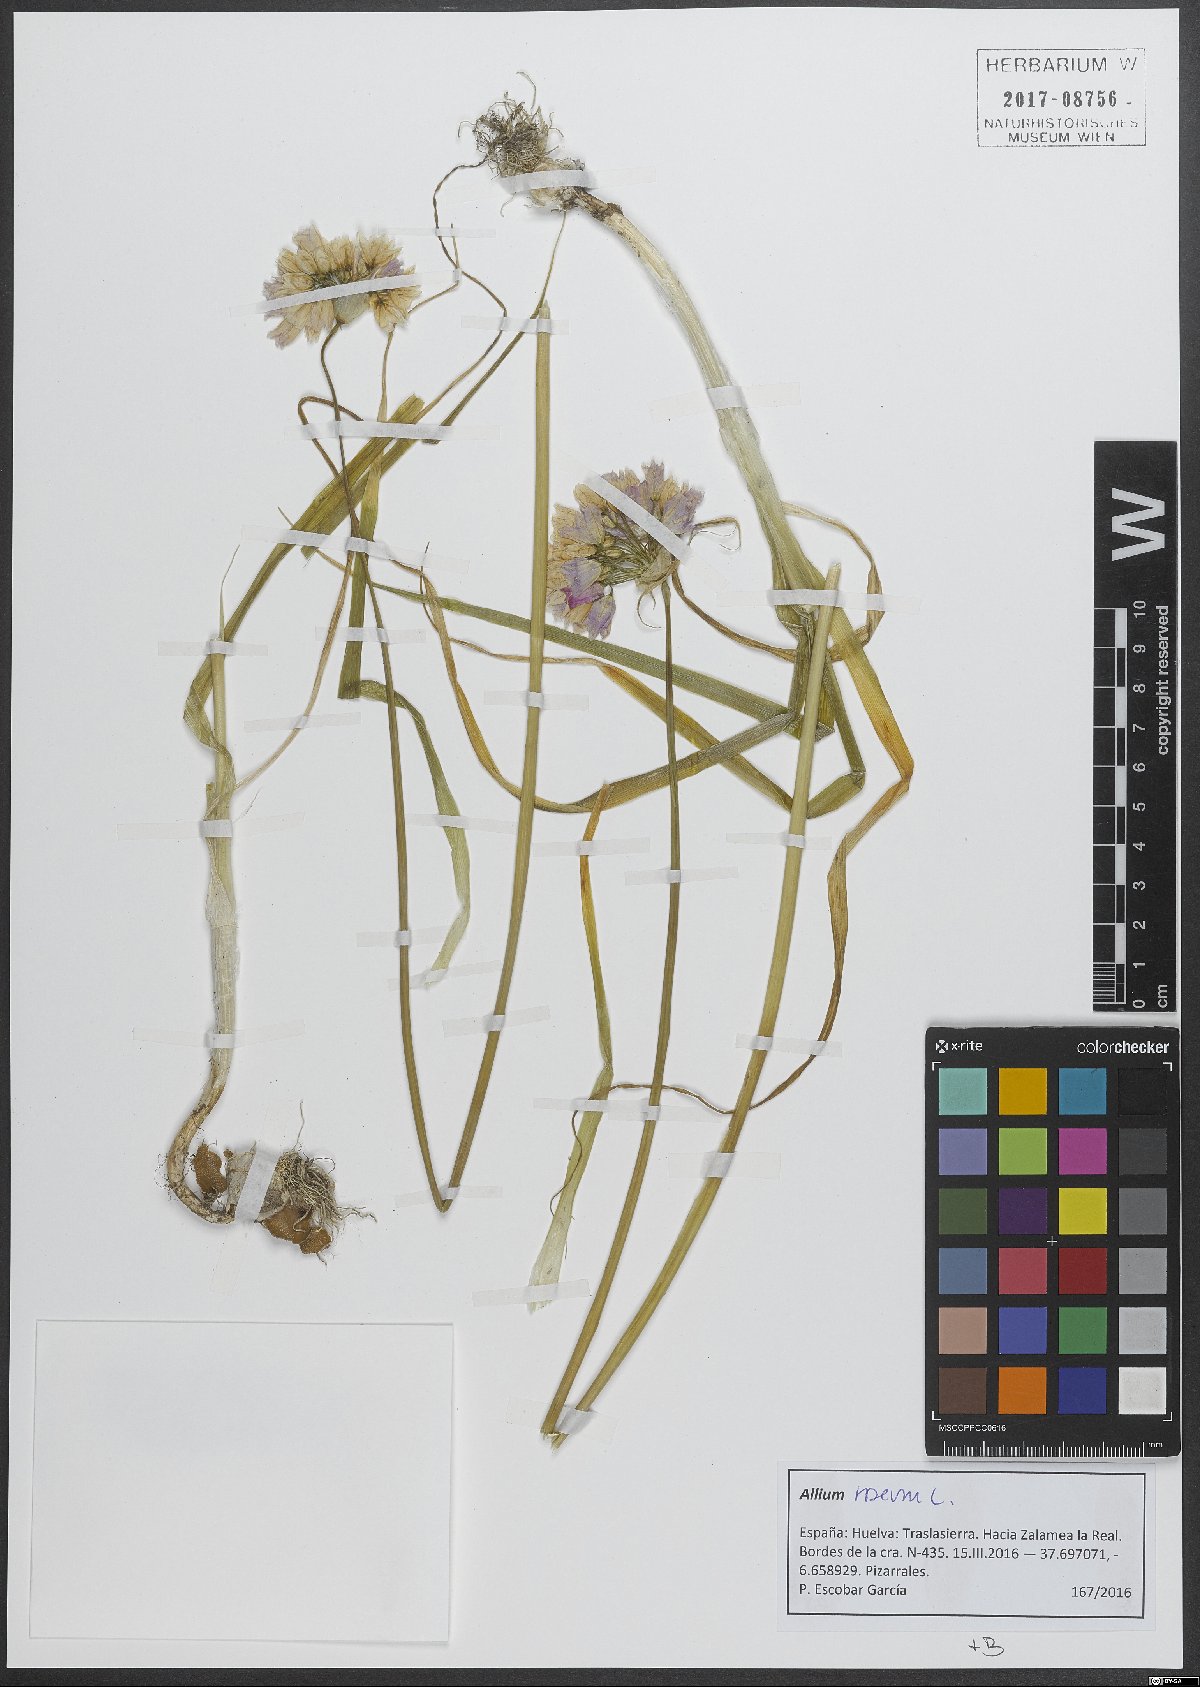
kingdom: Plantae
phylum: Tracheophyta
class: Liliopsida
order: Asparagales
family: Amaryllidaceae
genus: Allium
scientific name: Allium roseum
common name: Rosy garlic
